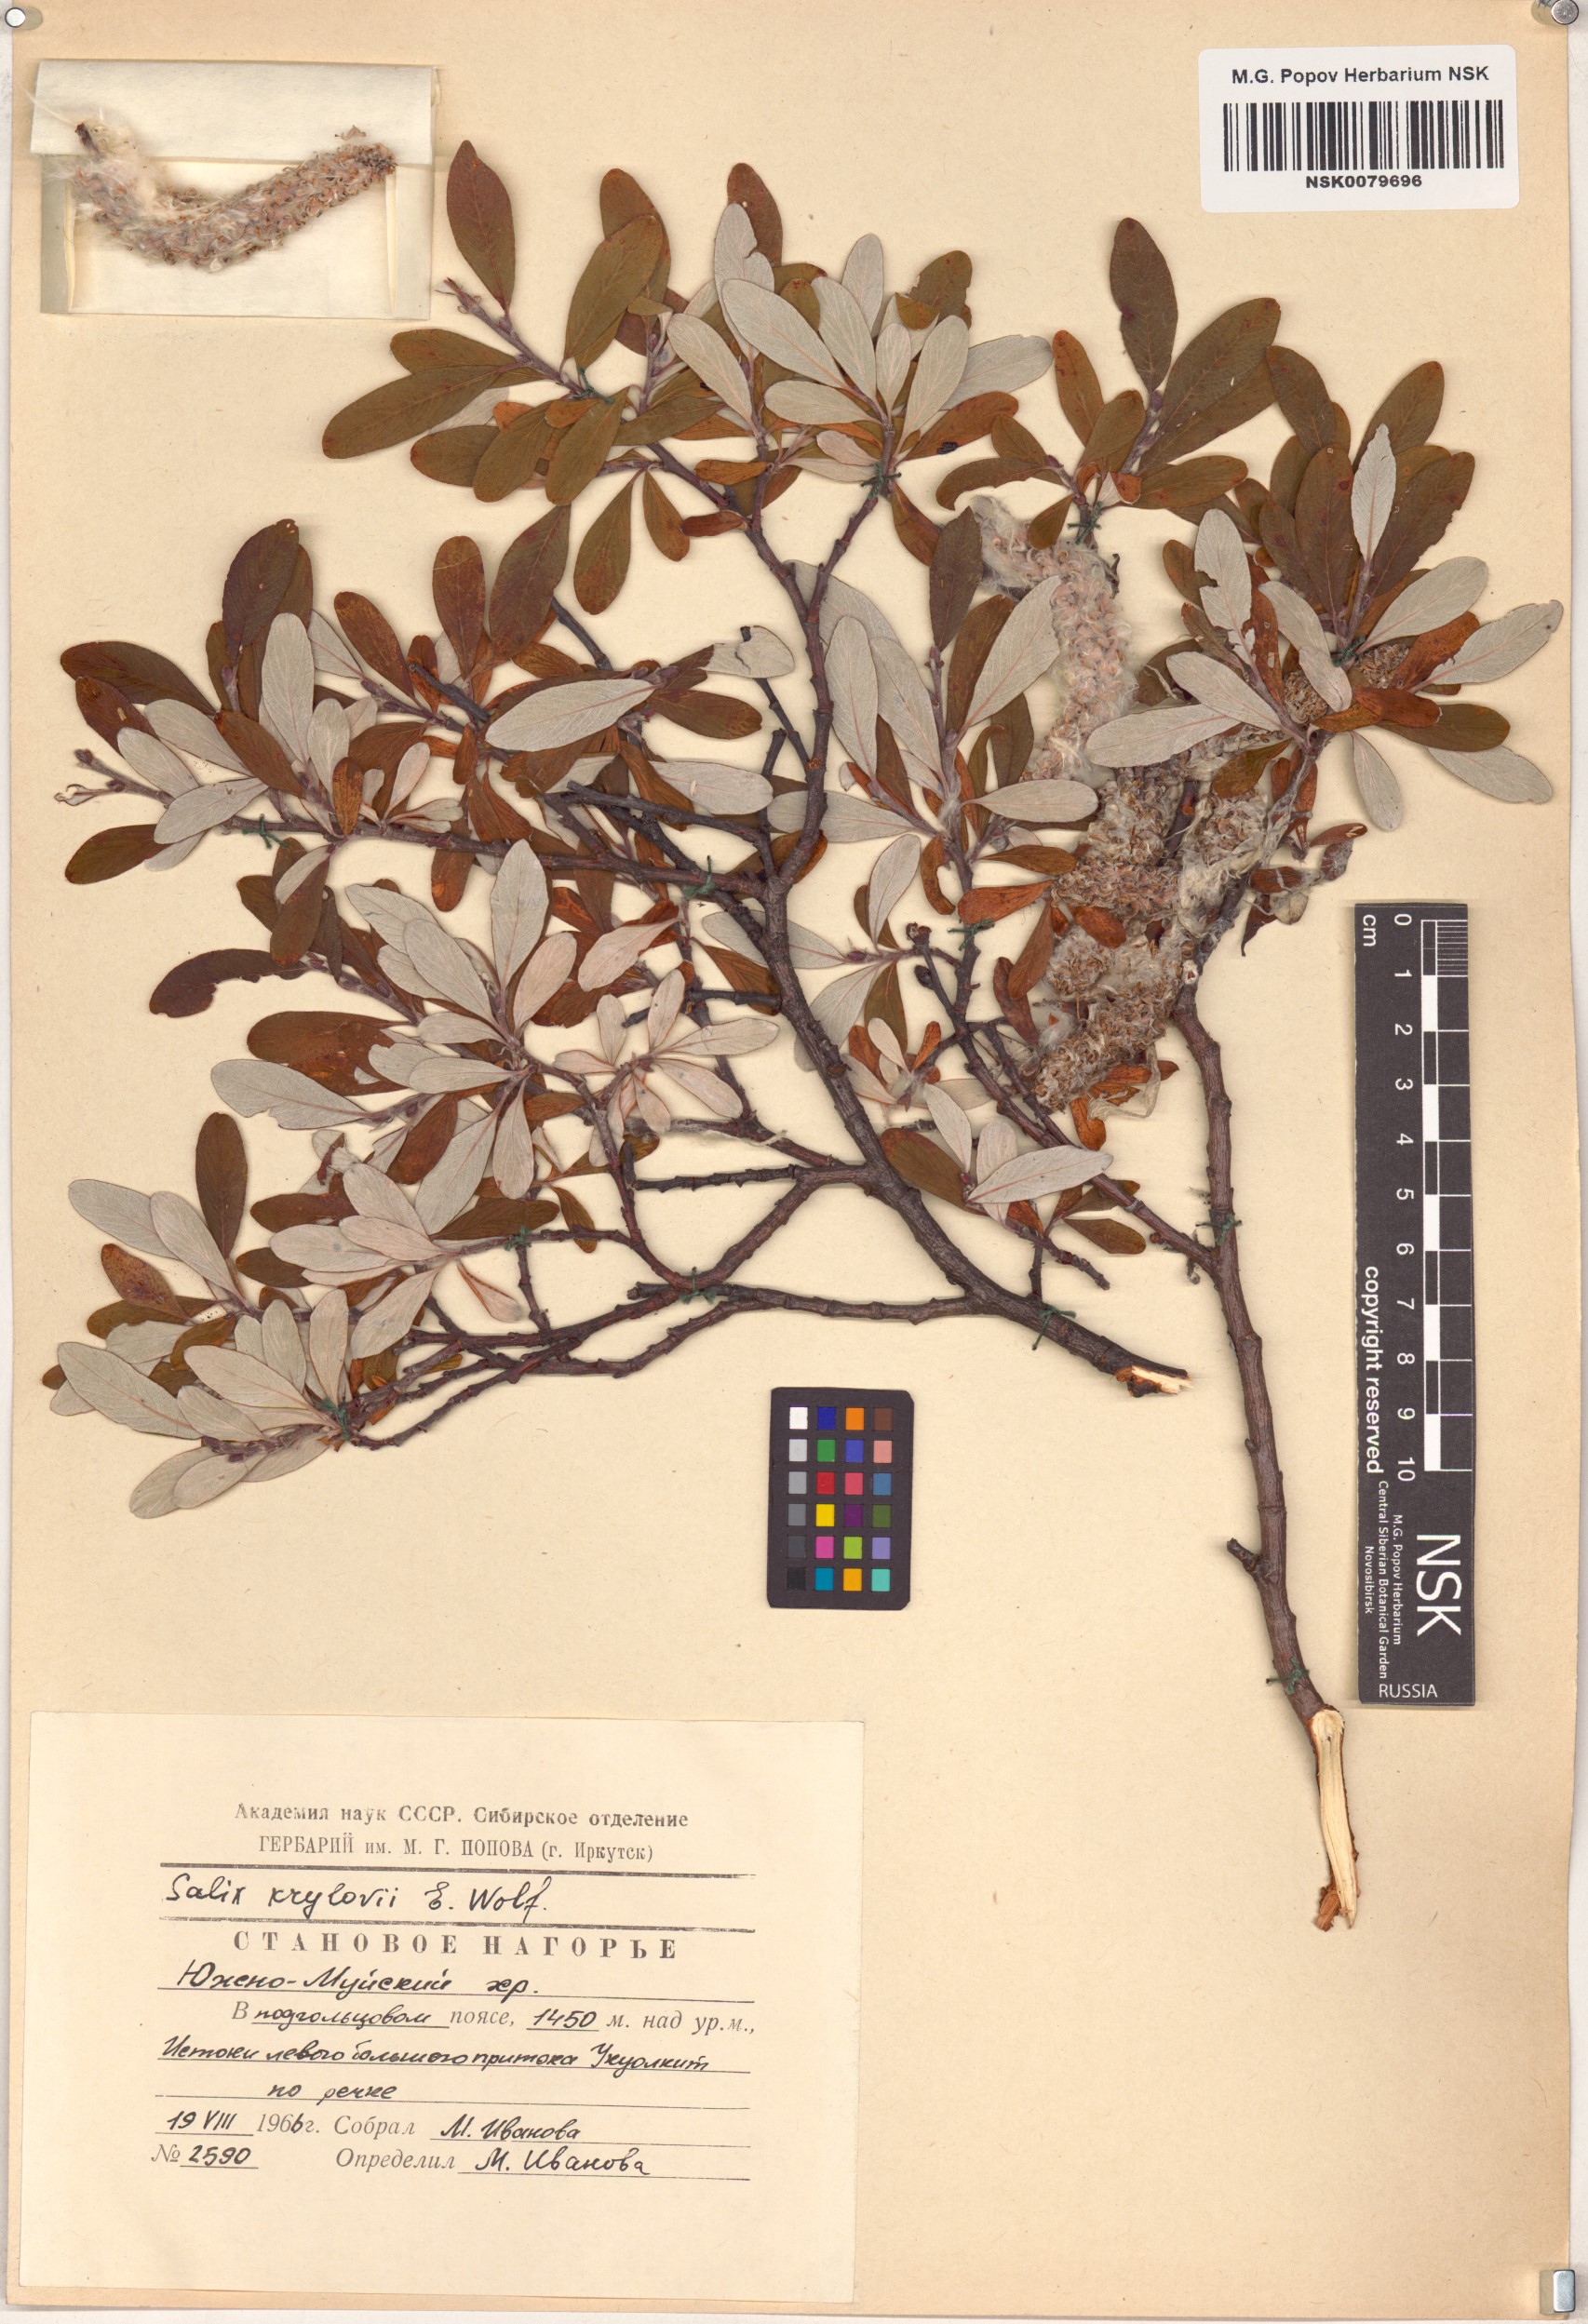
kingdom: Plantae
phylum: Tracheophyta
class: Magnoliopsida
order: Malpighiales
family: Salicaceae
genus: Salix
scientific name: Salix krylovii
